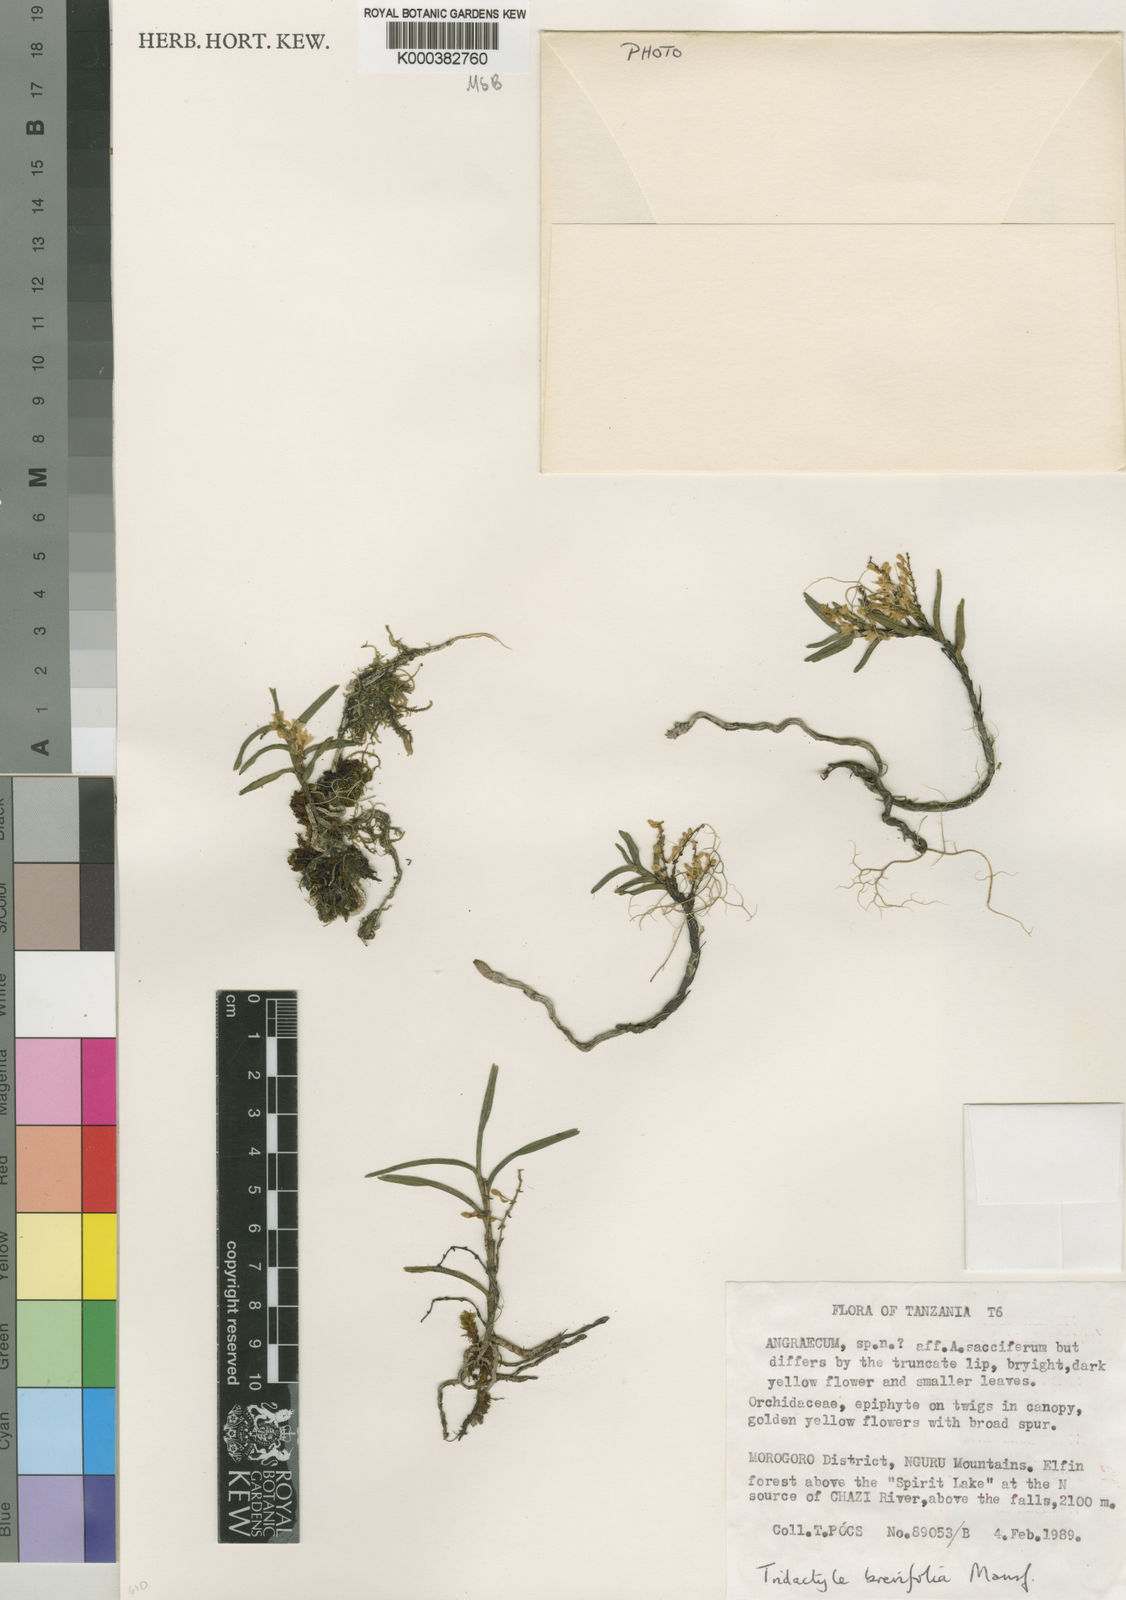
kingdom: Plantae
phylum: Tracheophyta
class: Liliopsida
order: Asparagales
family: Orchidaceae
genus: Tridactyle
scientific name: Tridactyle brevifolia
